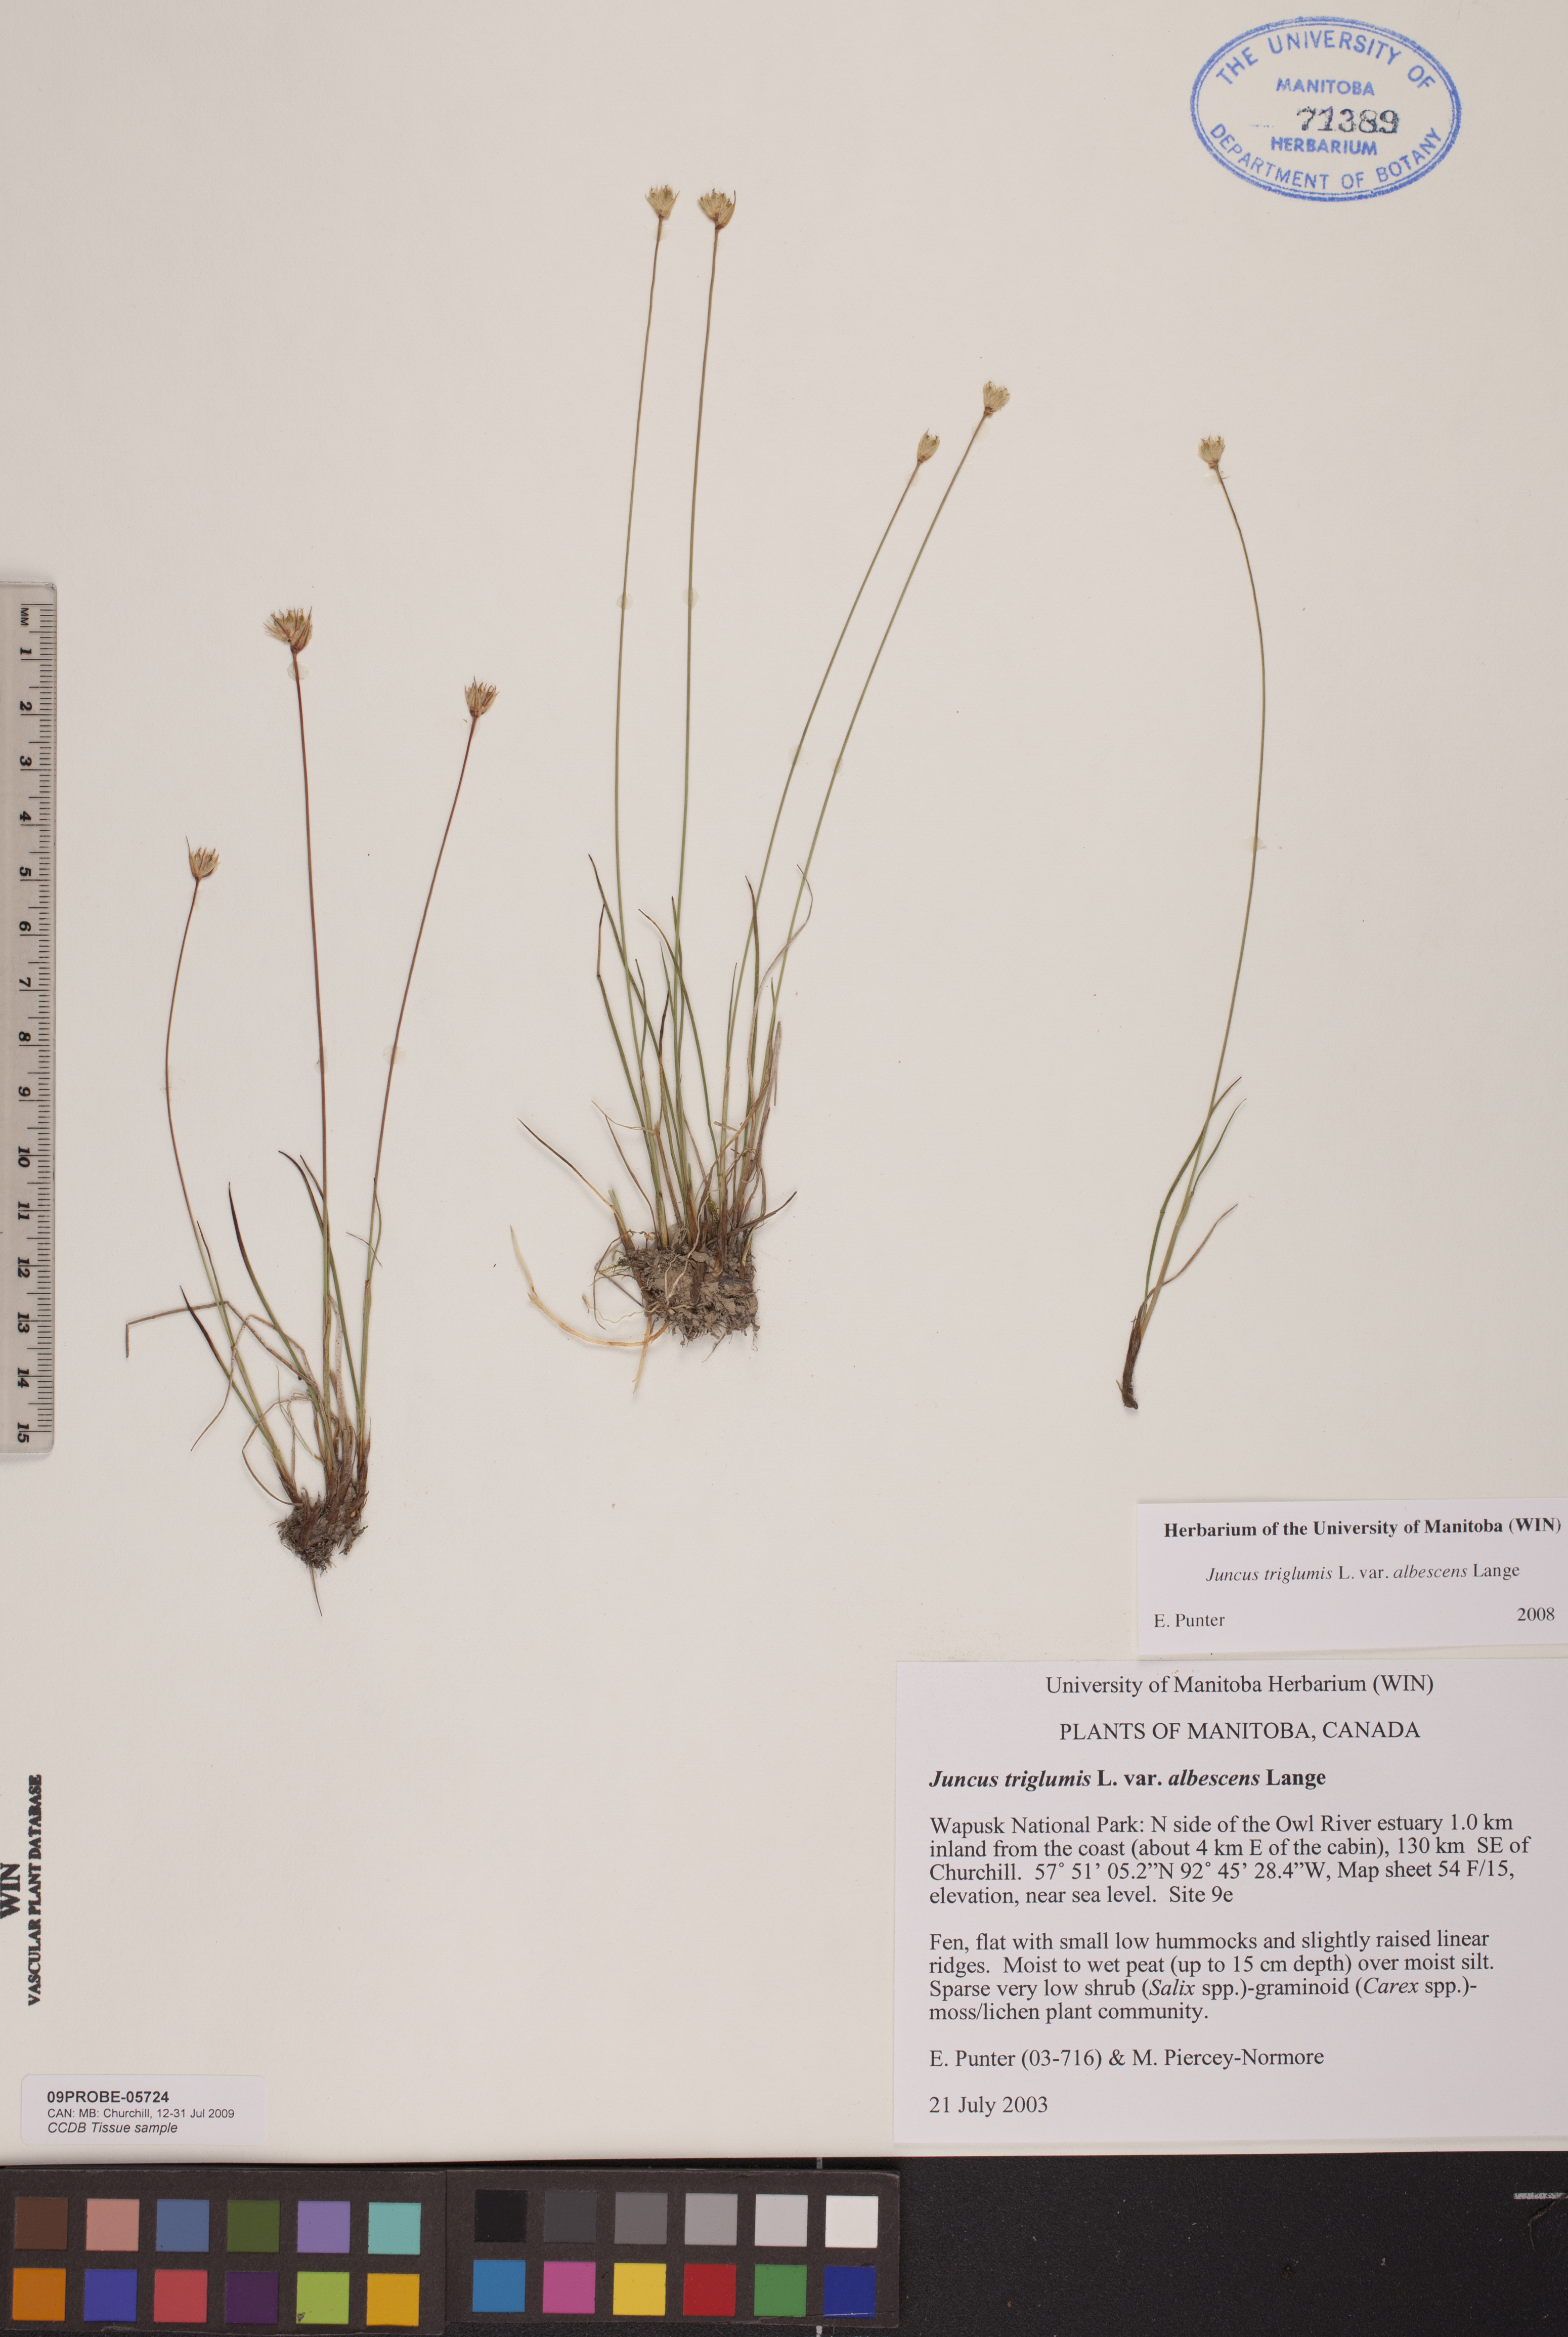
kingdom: Plantae
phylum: Tracheophyta
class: Liliopsida
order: Poales
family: Juncaceae
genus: Juncus
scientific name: Juncus albescens
